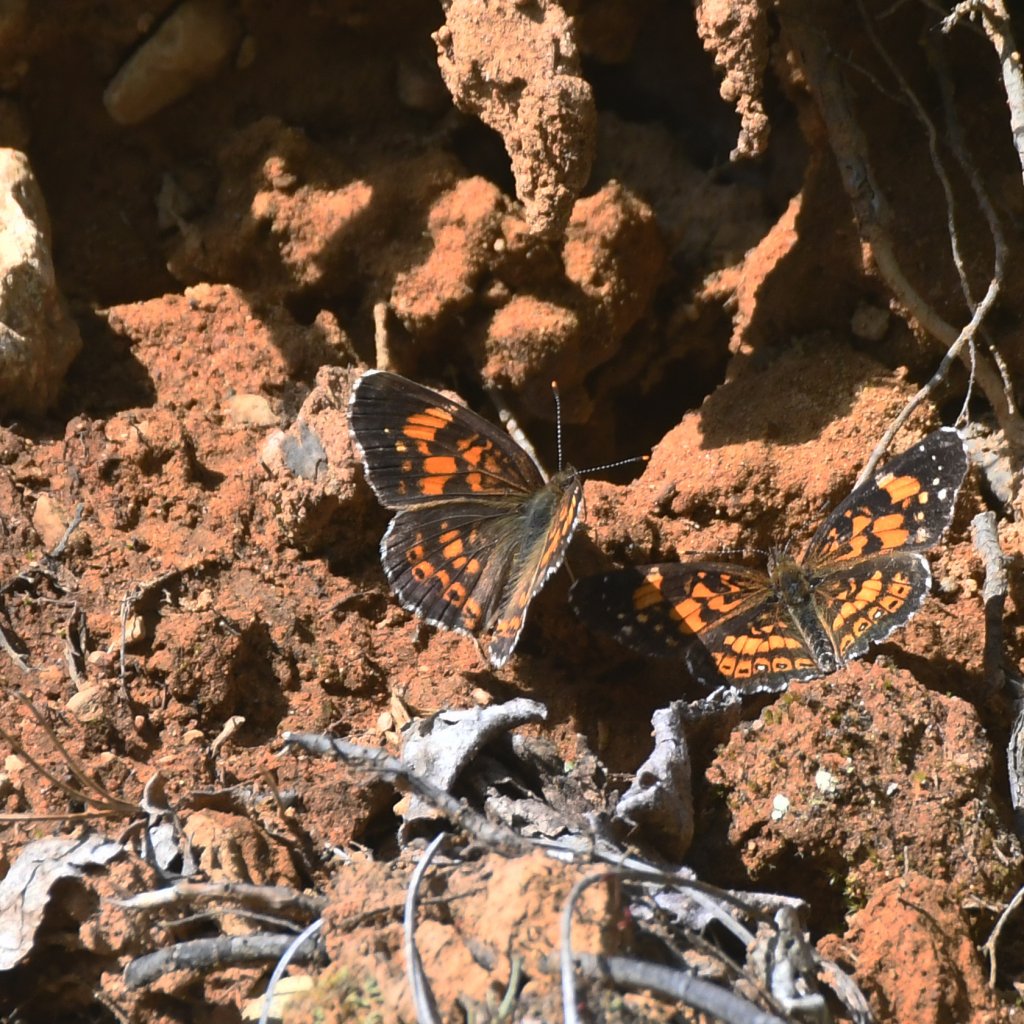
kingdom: Animalia
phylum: Arthropoda
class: Insecta
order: Lepidoptera
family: Nymphalidae
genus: Chlosyne
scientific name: Chlosyne nycteis
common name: Silvery Checkerspot
